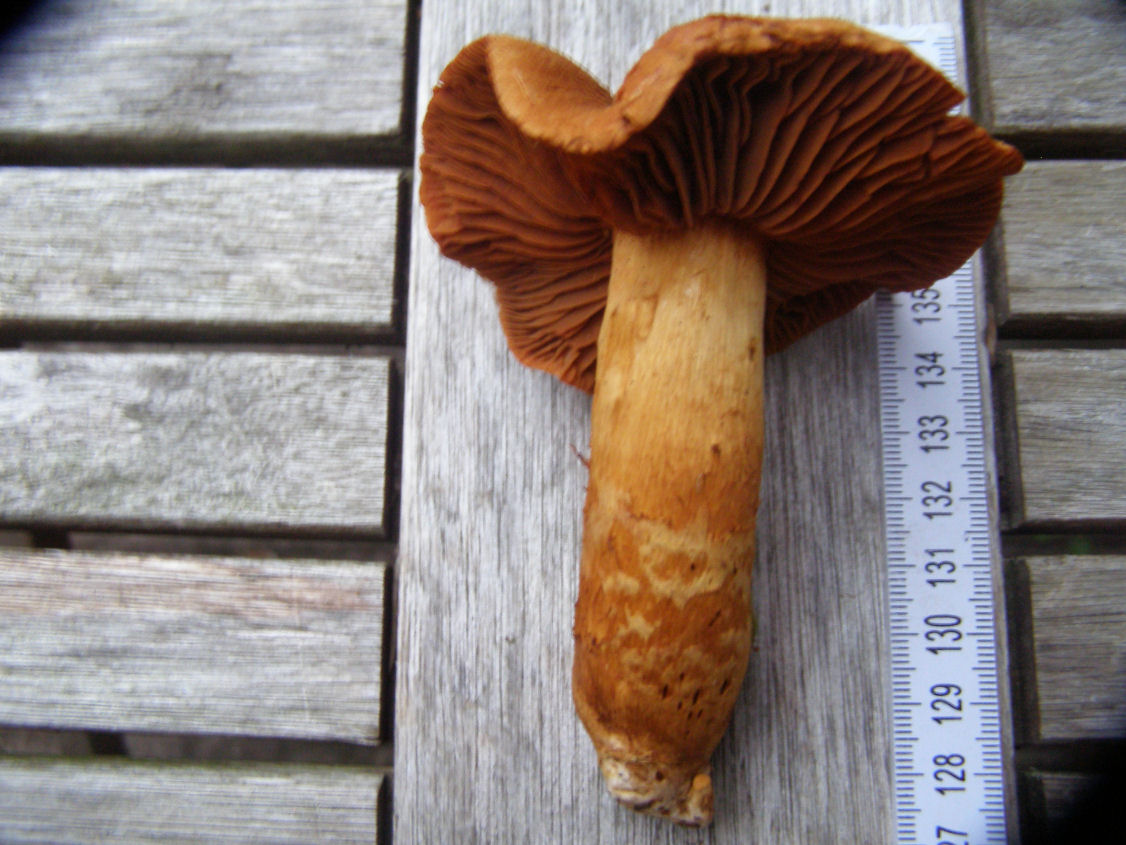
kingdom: Fungi
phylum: Basidiomycota
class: Agaricomycetes
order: Agaricales
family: Cortinariaceae
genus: Cortinarius
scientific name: Cortinarius rubellus
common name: puklet gift-slørhat
